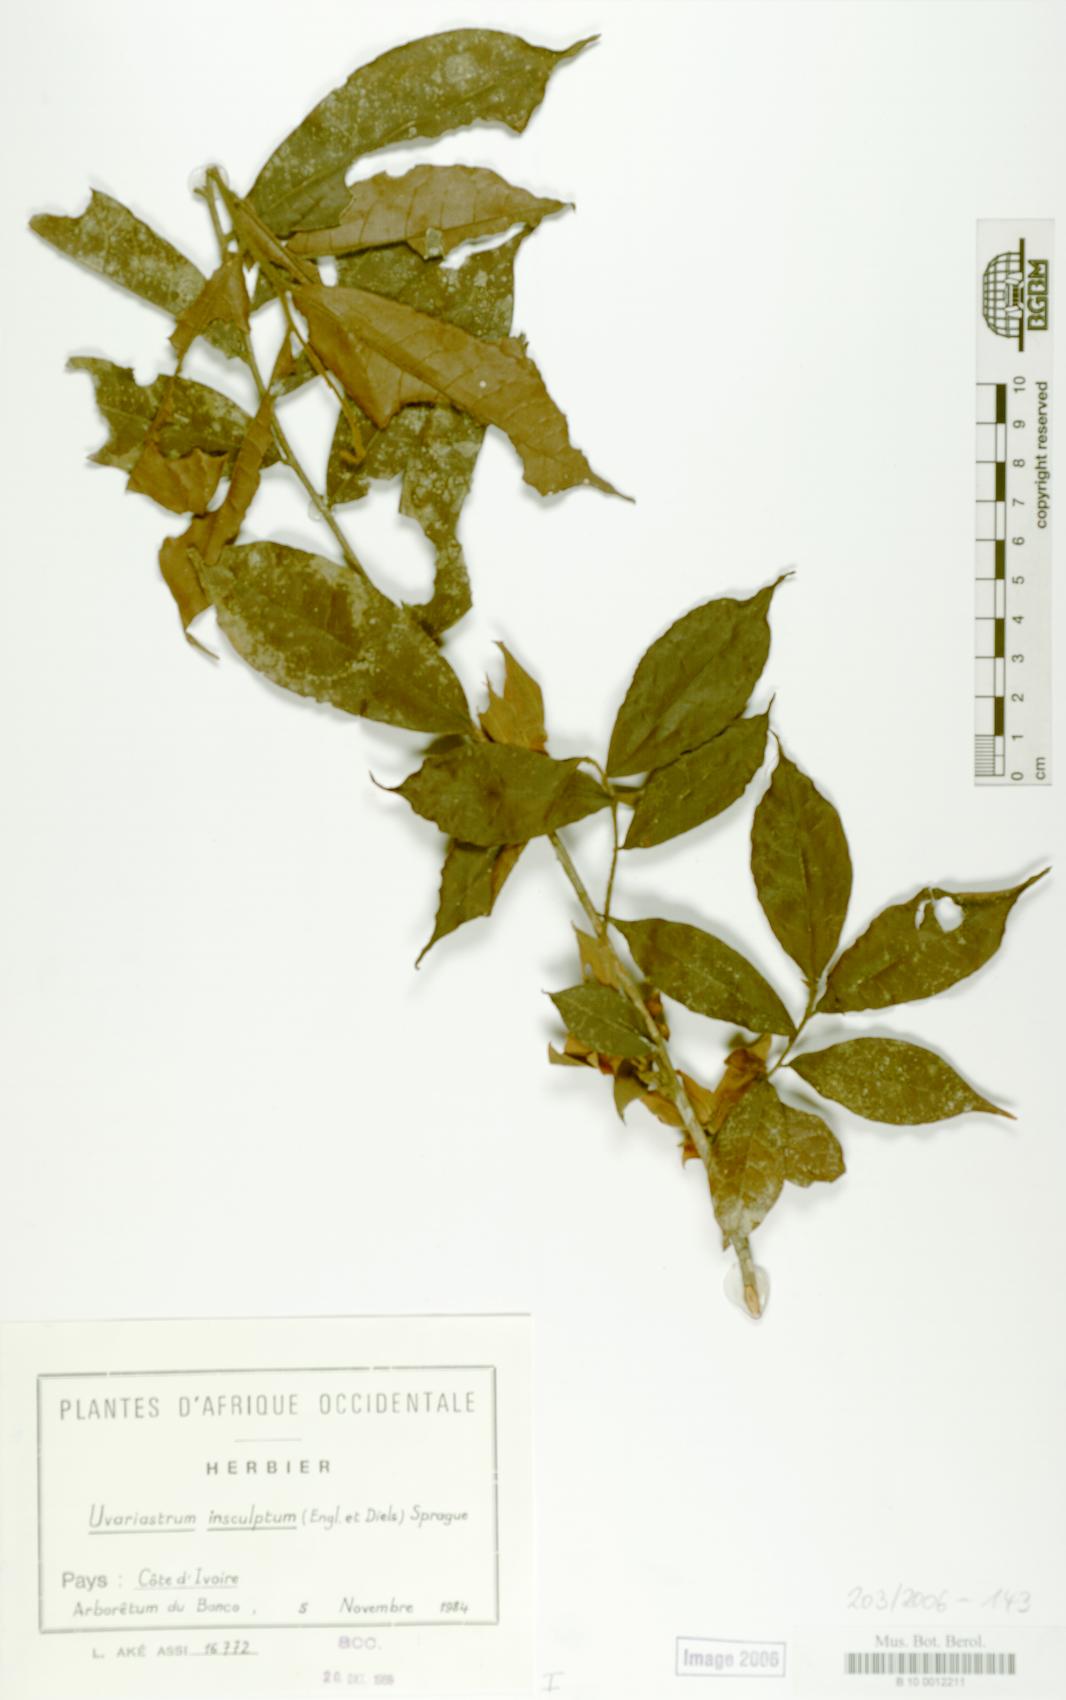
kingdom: Plantae
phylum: Tracheophyta
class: Magnoliopsida
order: Magnoliales
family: Annonaceae
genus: Uvariastrum
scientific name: Uvariastrum pierreanum
